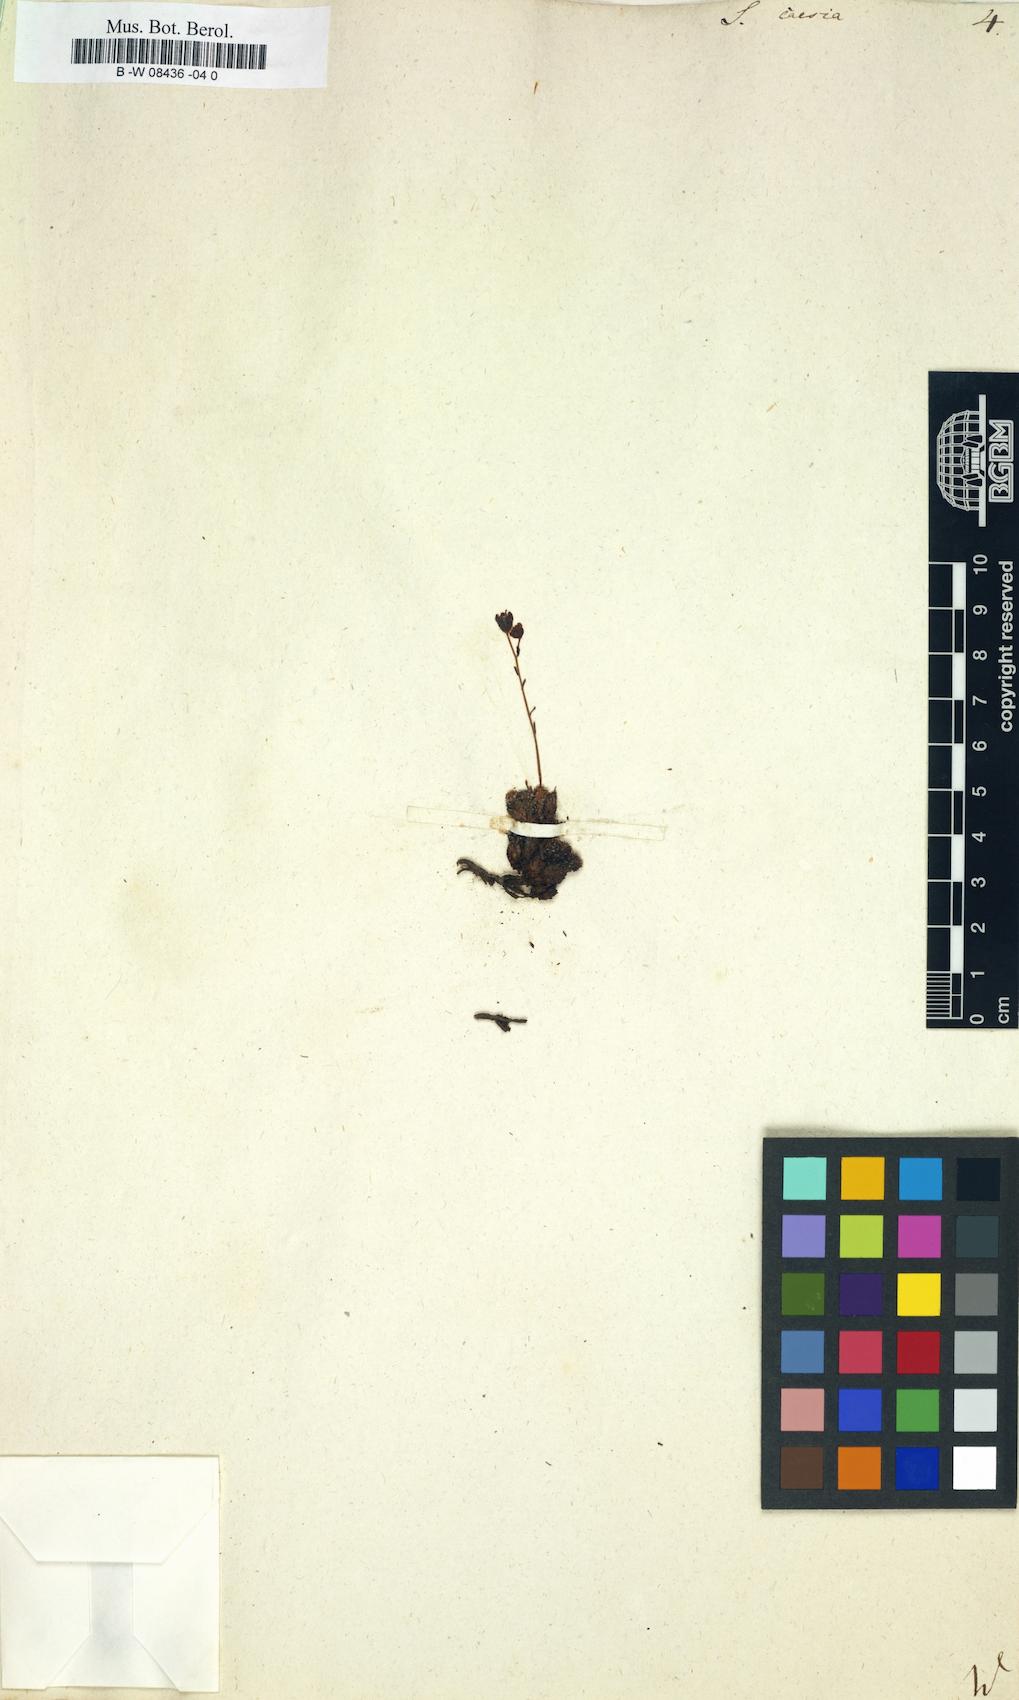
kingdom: Plantae
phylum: Tracheophyta
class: Magnoliopsida
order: Saxifragales
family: Saxifragaceae
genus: Saxifraga
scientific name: Saxifraga caesia
